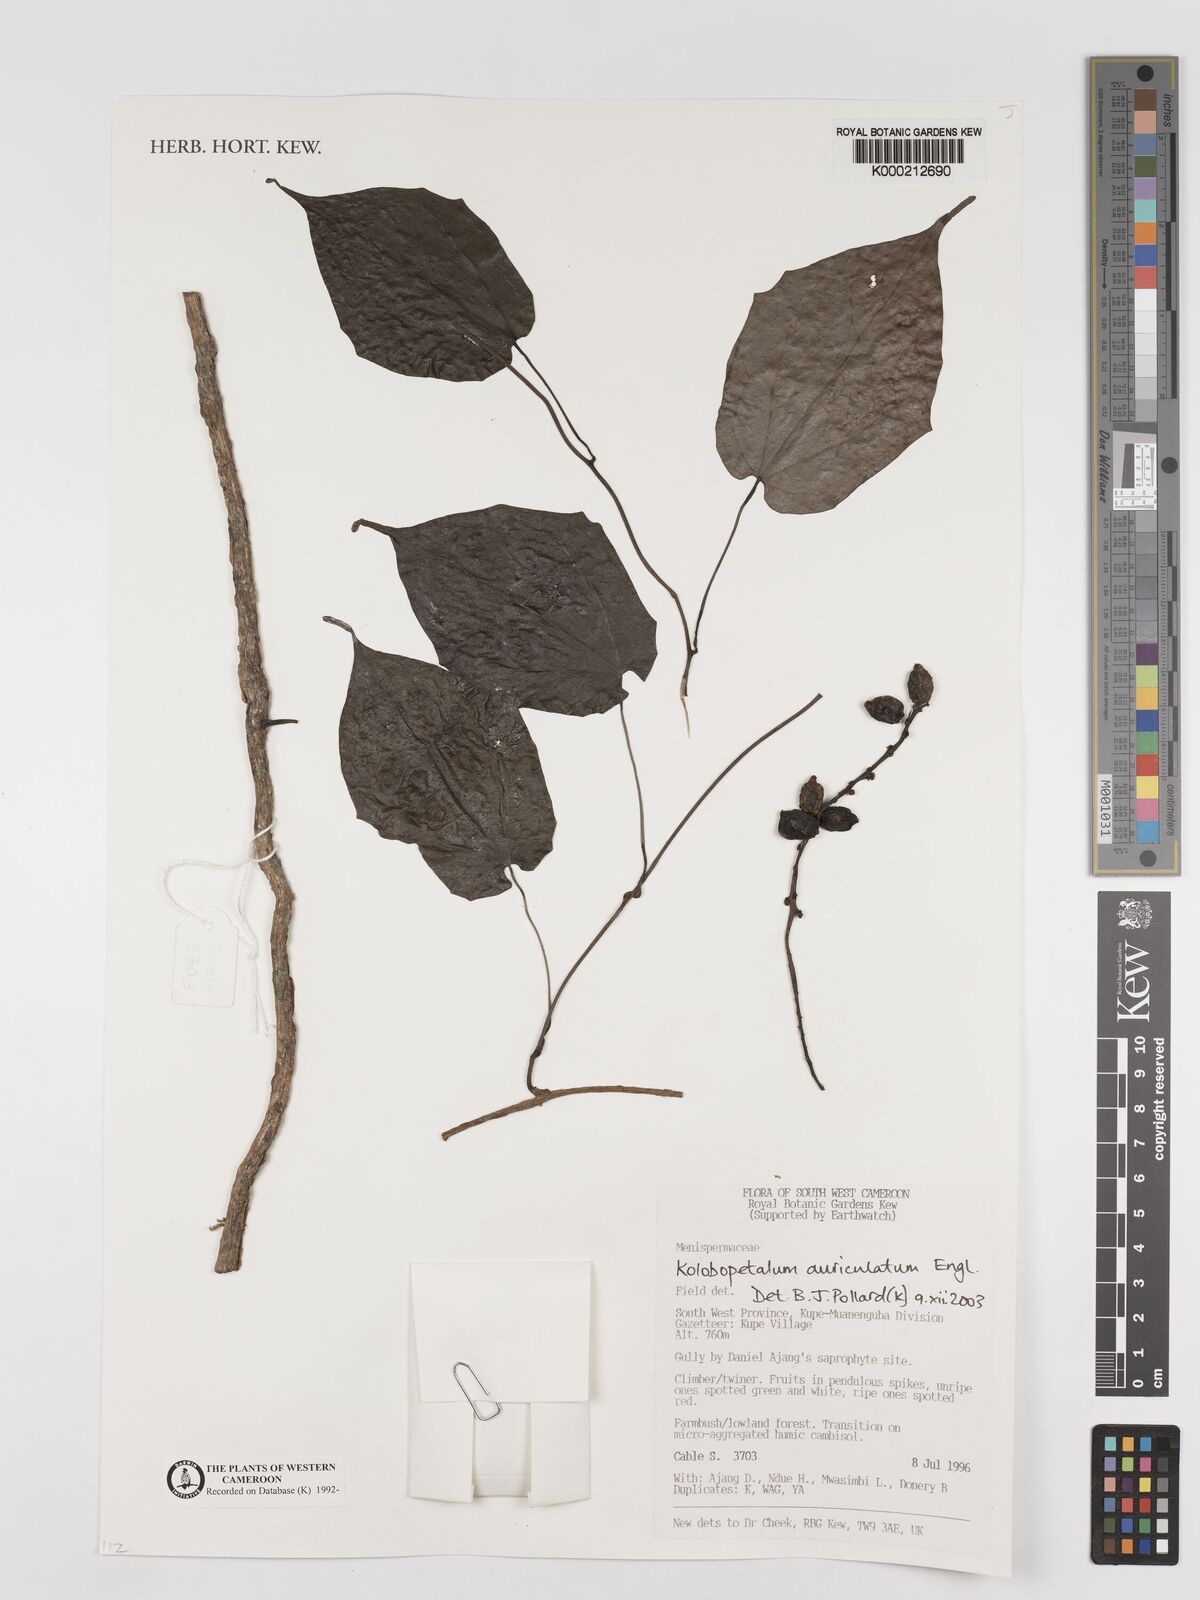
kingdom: Plantae
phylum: Tracheophyta
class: Magnoliopsida
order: Ranunculales
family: Menispermaceae
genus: Kolobopetalum
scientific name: Kolobopetalum auriculatum
